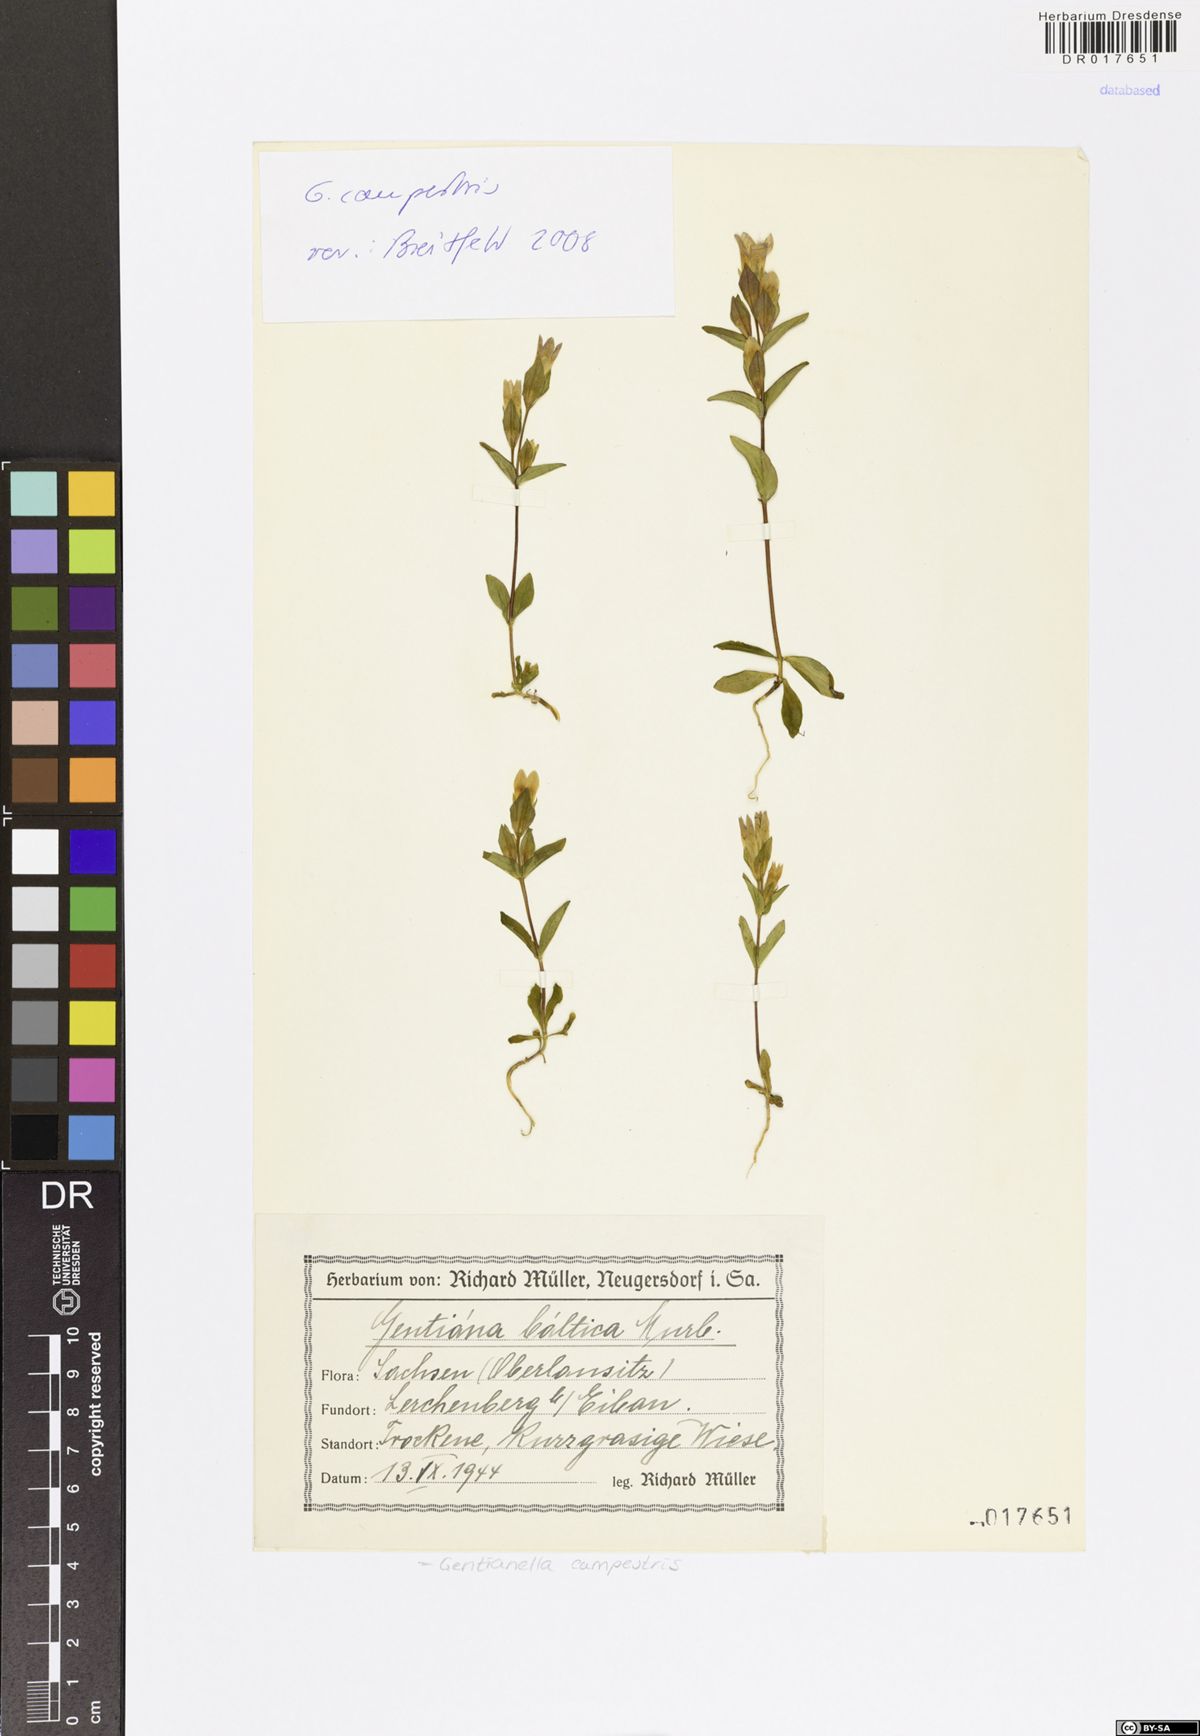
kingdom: Plantae
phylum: Tracheophyta
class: Magnoliopsida
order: Gentianales
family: Gentianaceae
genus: Gentianella
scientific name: Gentianella campestris
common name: Field gentian
